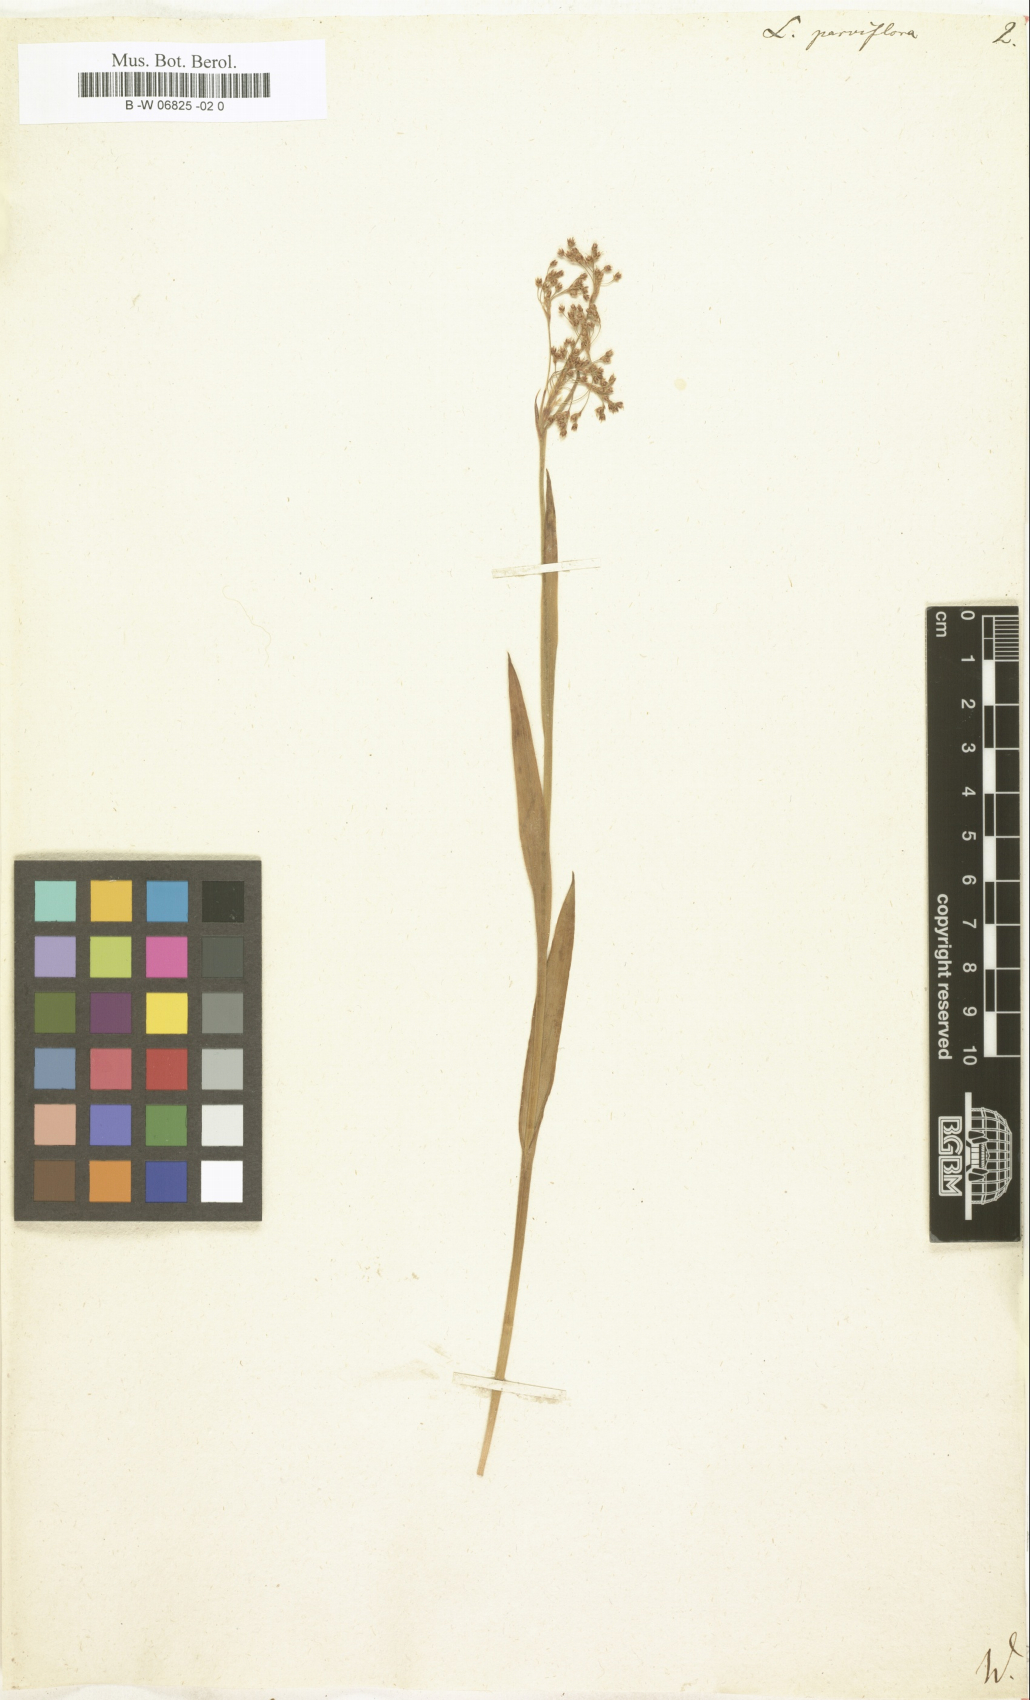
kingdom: Plantae
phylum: Tracheophyta
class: Liliopsida
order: Poales
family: Juncaceae
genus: Luzula
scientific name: Luzula parviflora
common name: Millet woodrush
